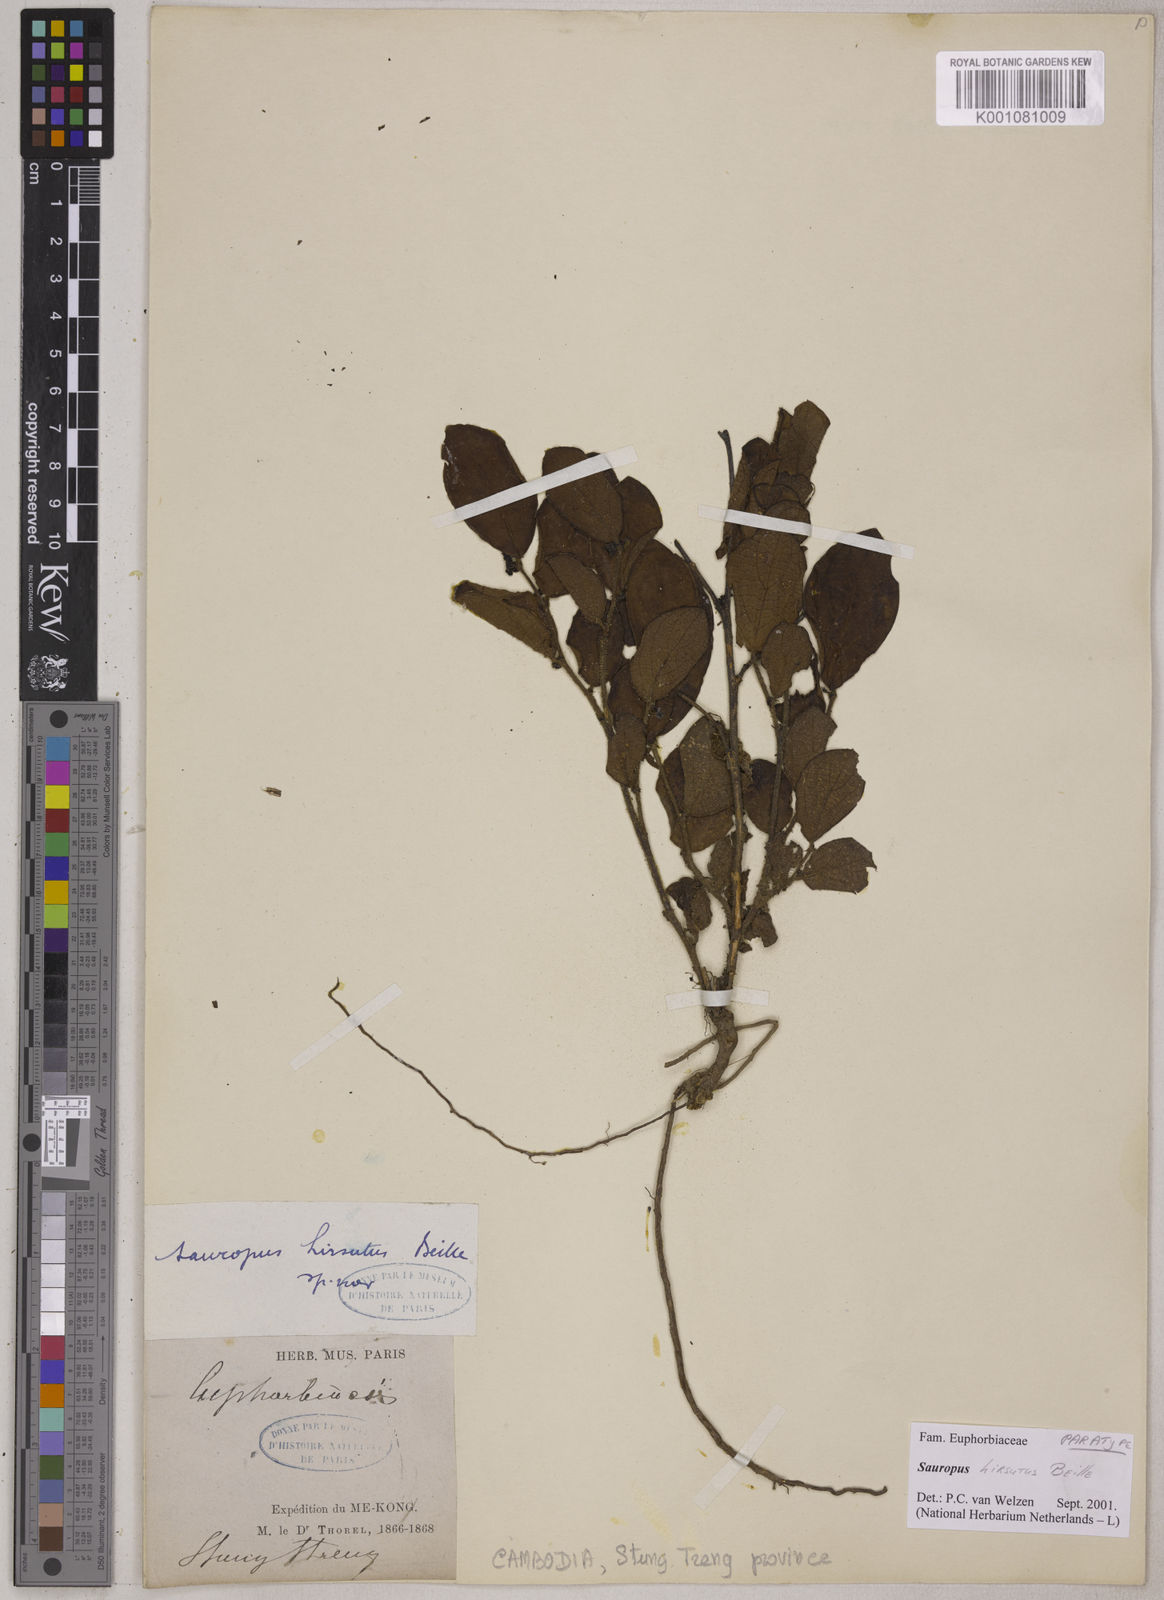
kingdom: Plantae
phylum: Tracheophyta
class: Magnoliopsida
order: Malpighiales
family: Phyllanthaceae
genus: Breynia
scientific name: Breynia hirsuta
